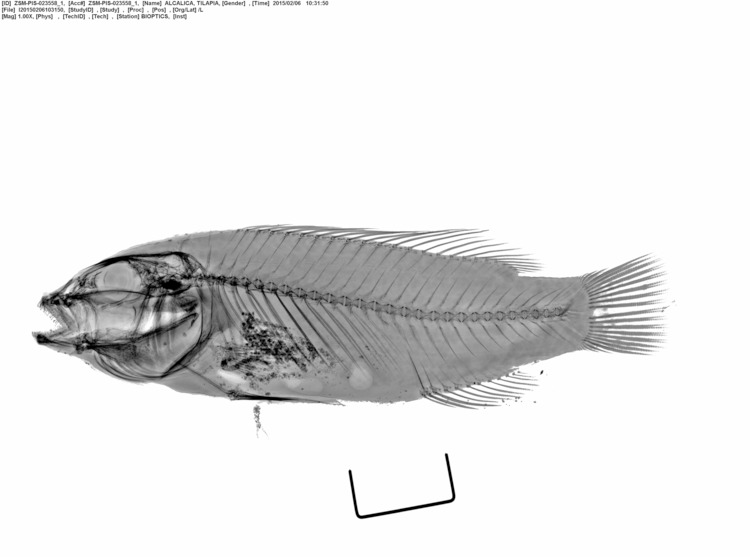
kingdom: Animalia
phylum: Chordata
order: Perciformes
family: Cichlidae
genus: Alcolapia
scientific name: Alcolapia alcalica
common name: Magadi tilapia
